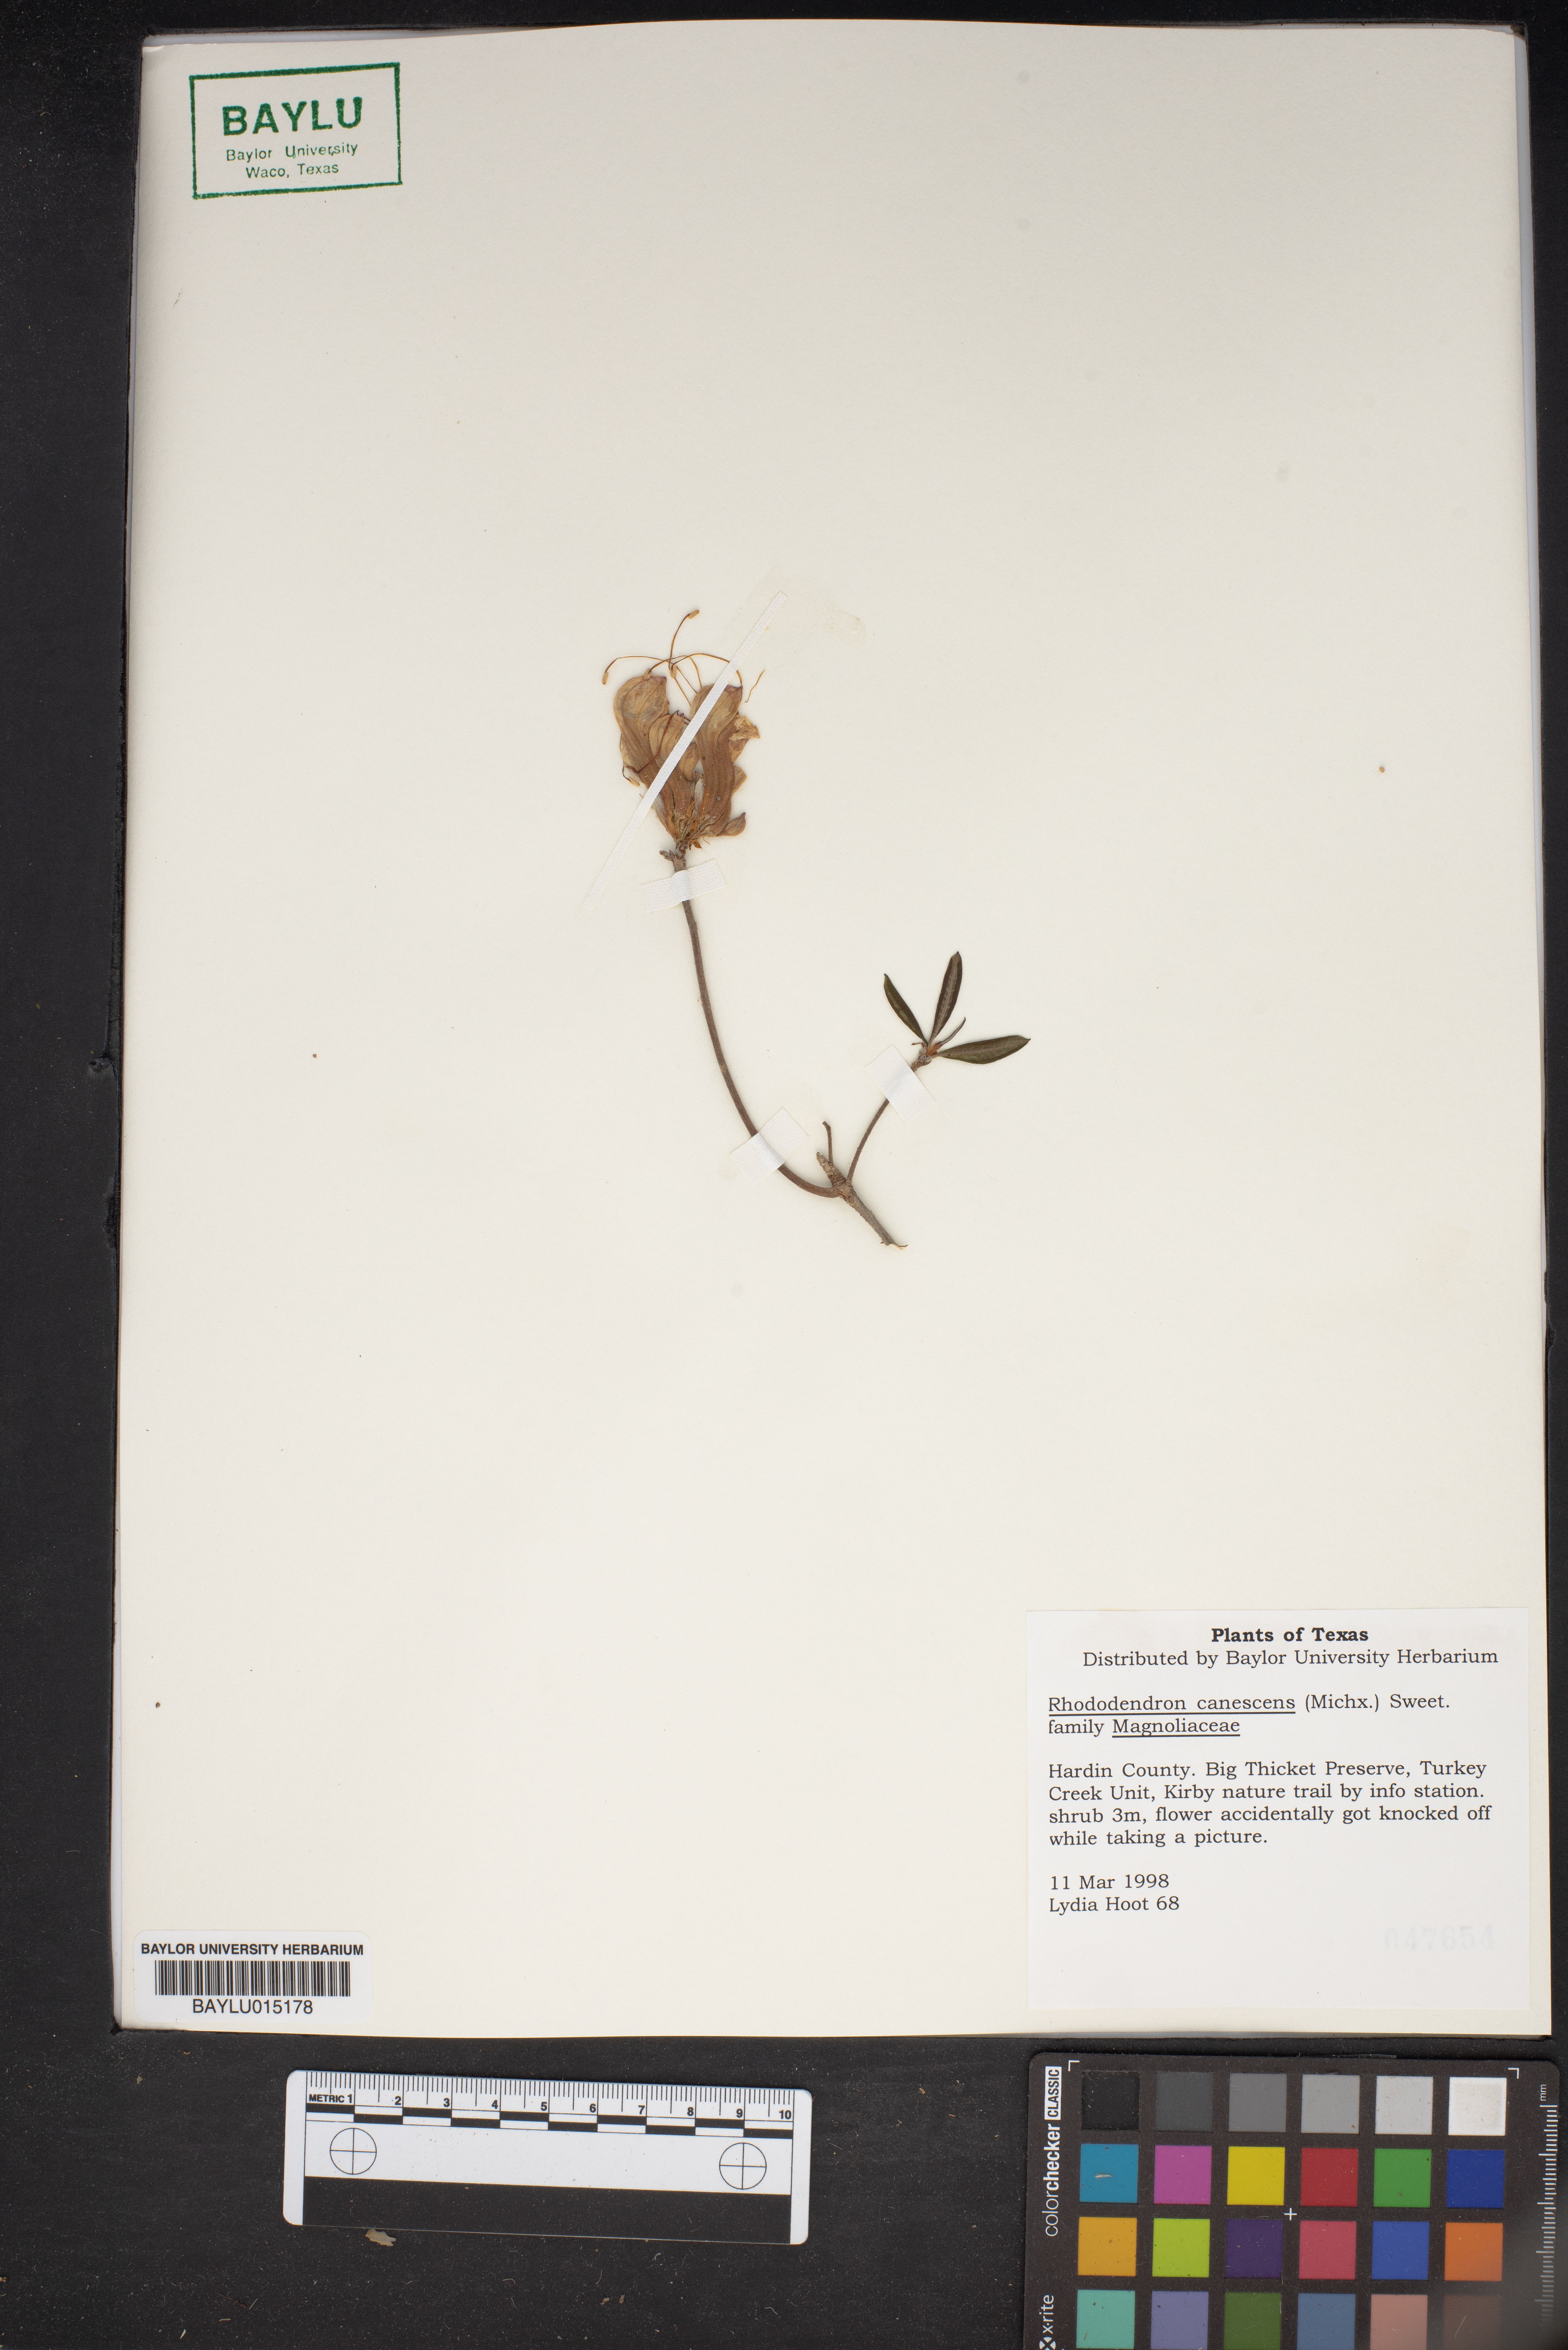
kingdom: Plantae
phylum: Tracheophyta
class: Magnoliopsida
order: Ericales
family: Ericaceae
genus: Rhododendron
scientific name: Rhododendron canescens
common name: Mountain azalea
